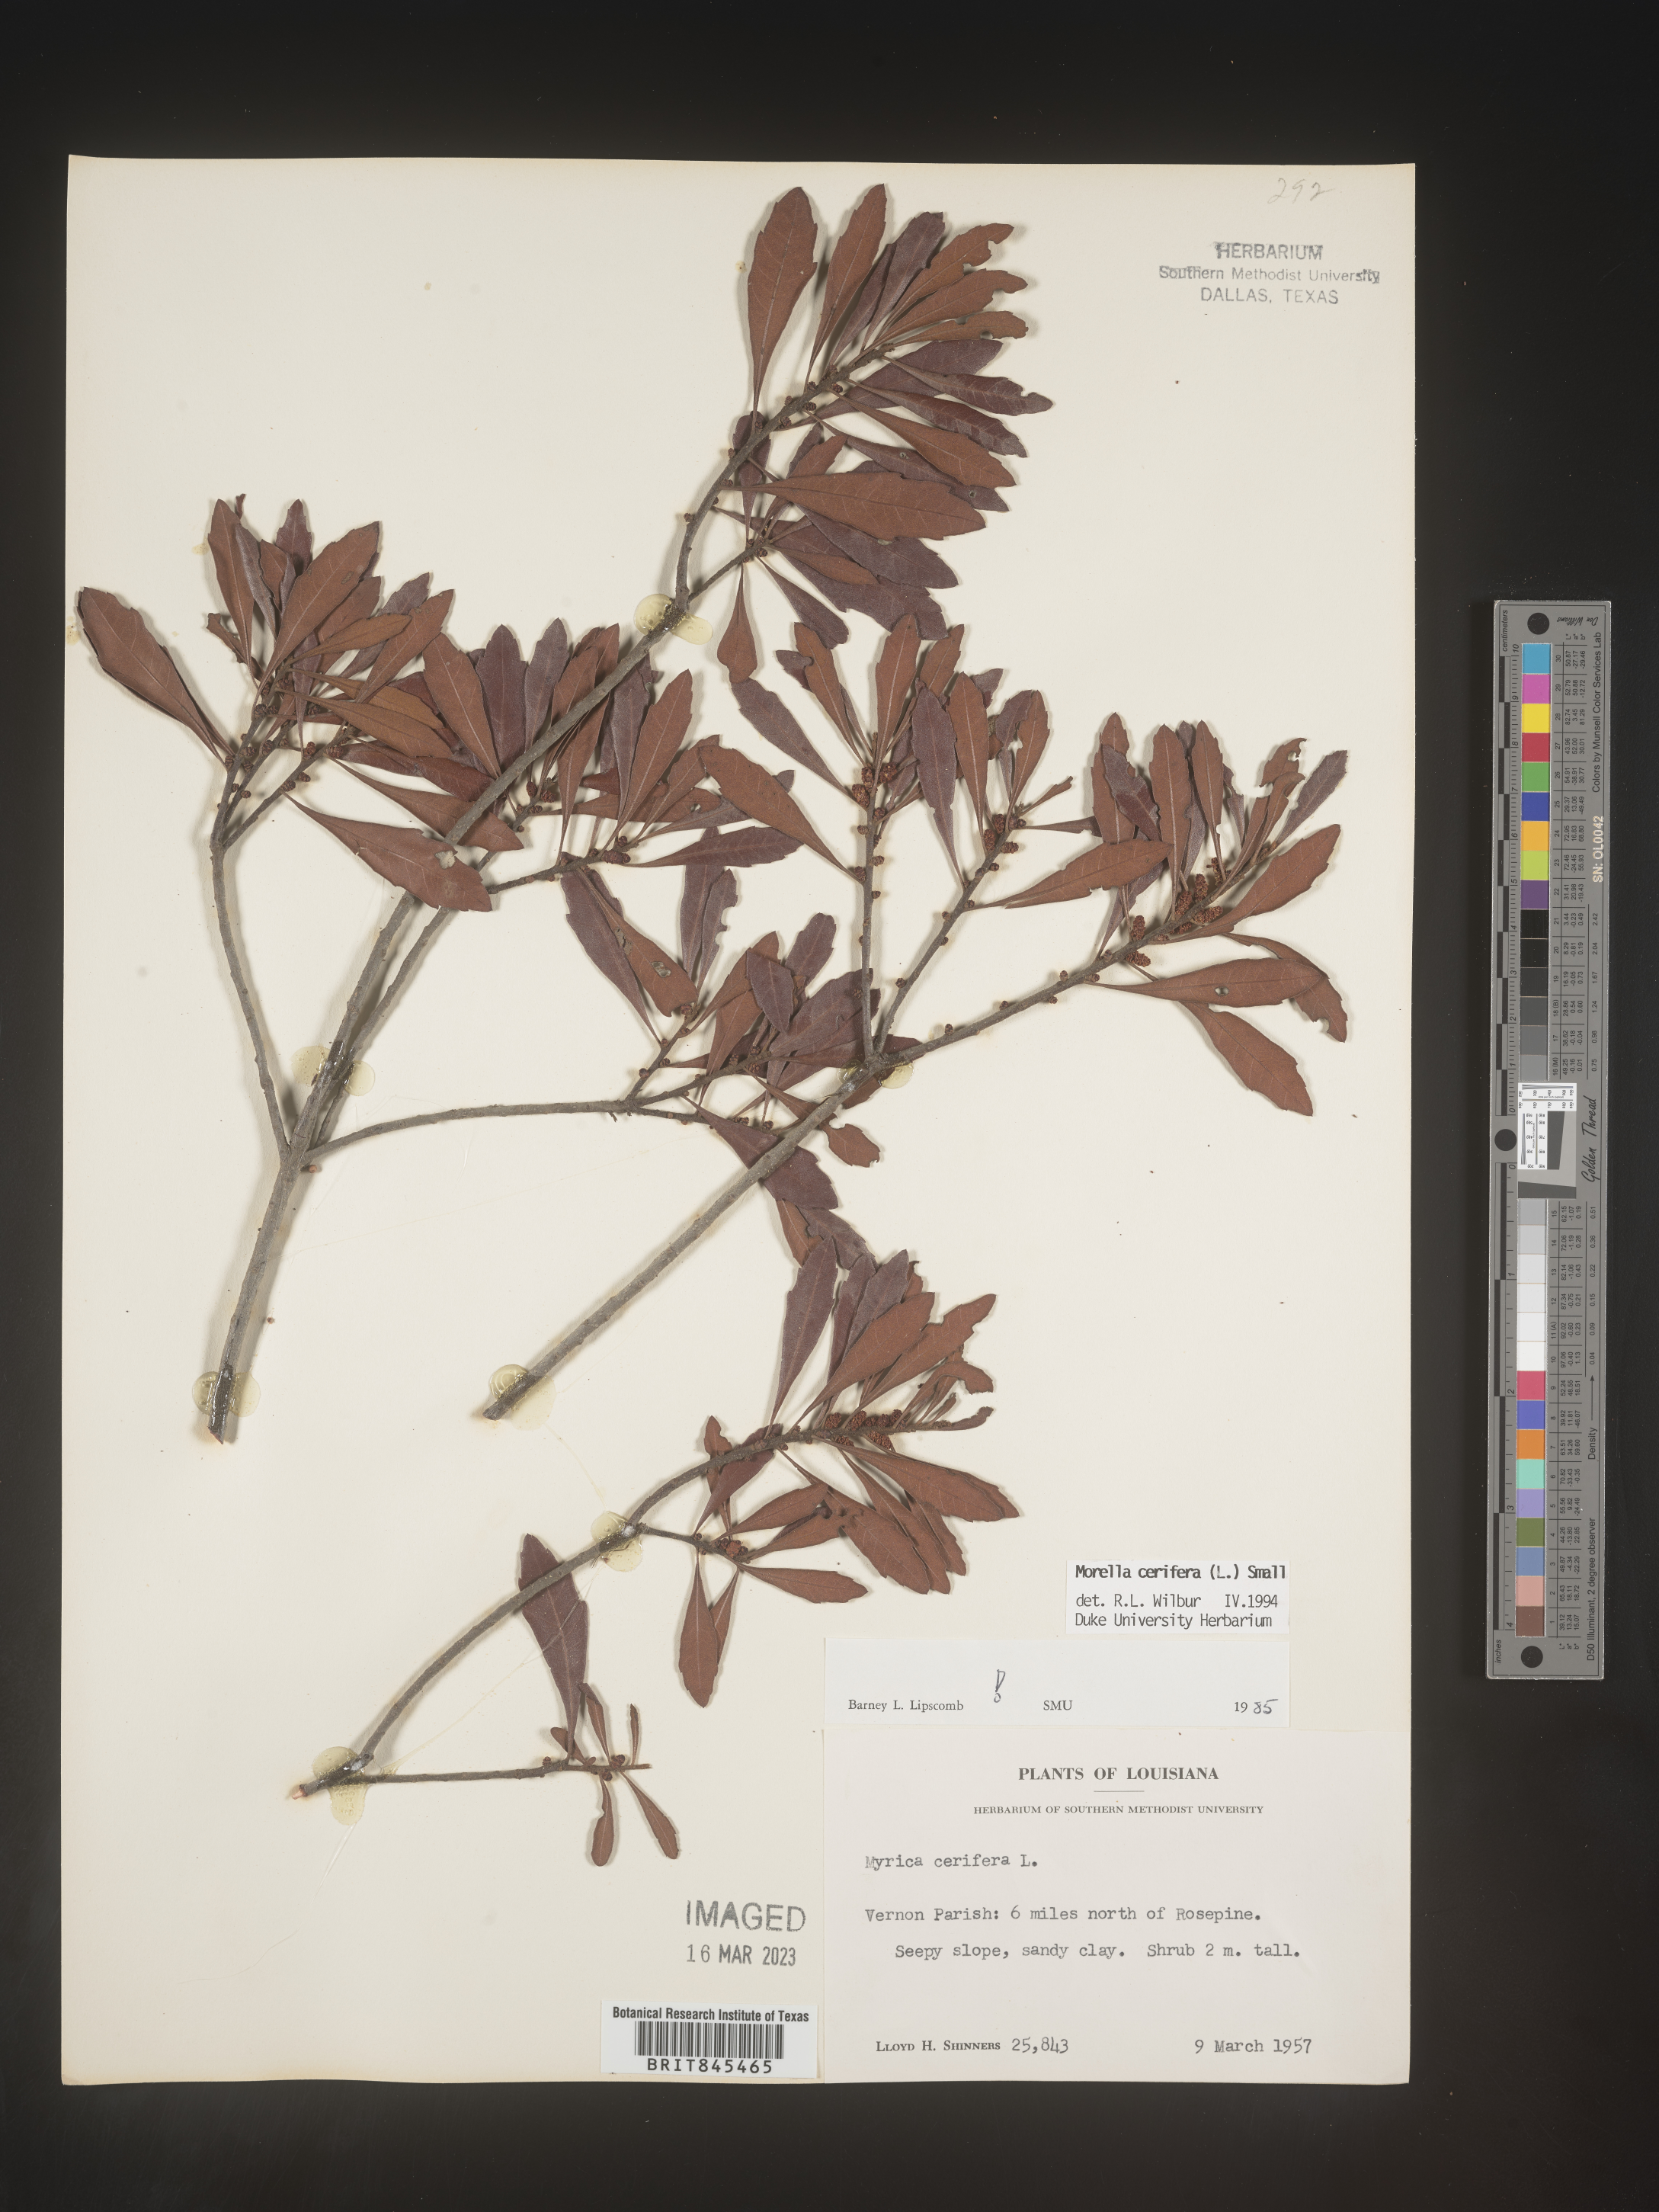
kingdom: Plantae
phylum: Tracheophyta
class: Magnoliopsida
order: Fagales
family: Myricaceae
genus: Morella
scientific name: Morella cerifera
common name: Wax myrtle
